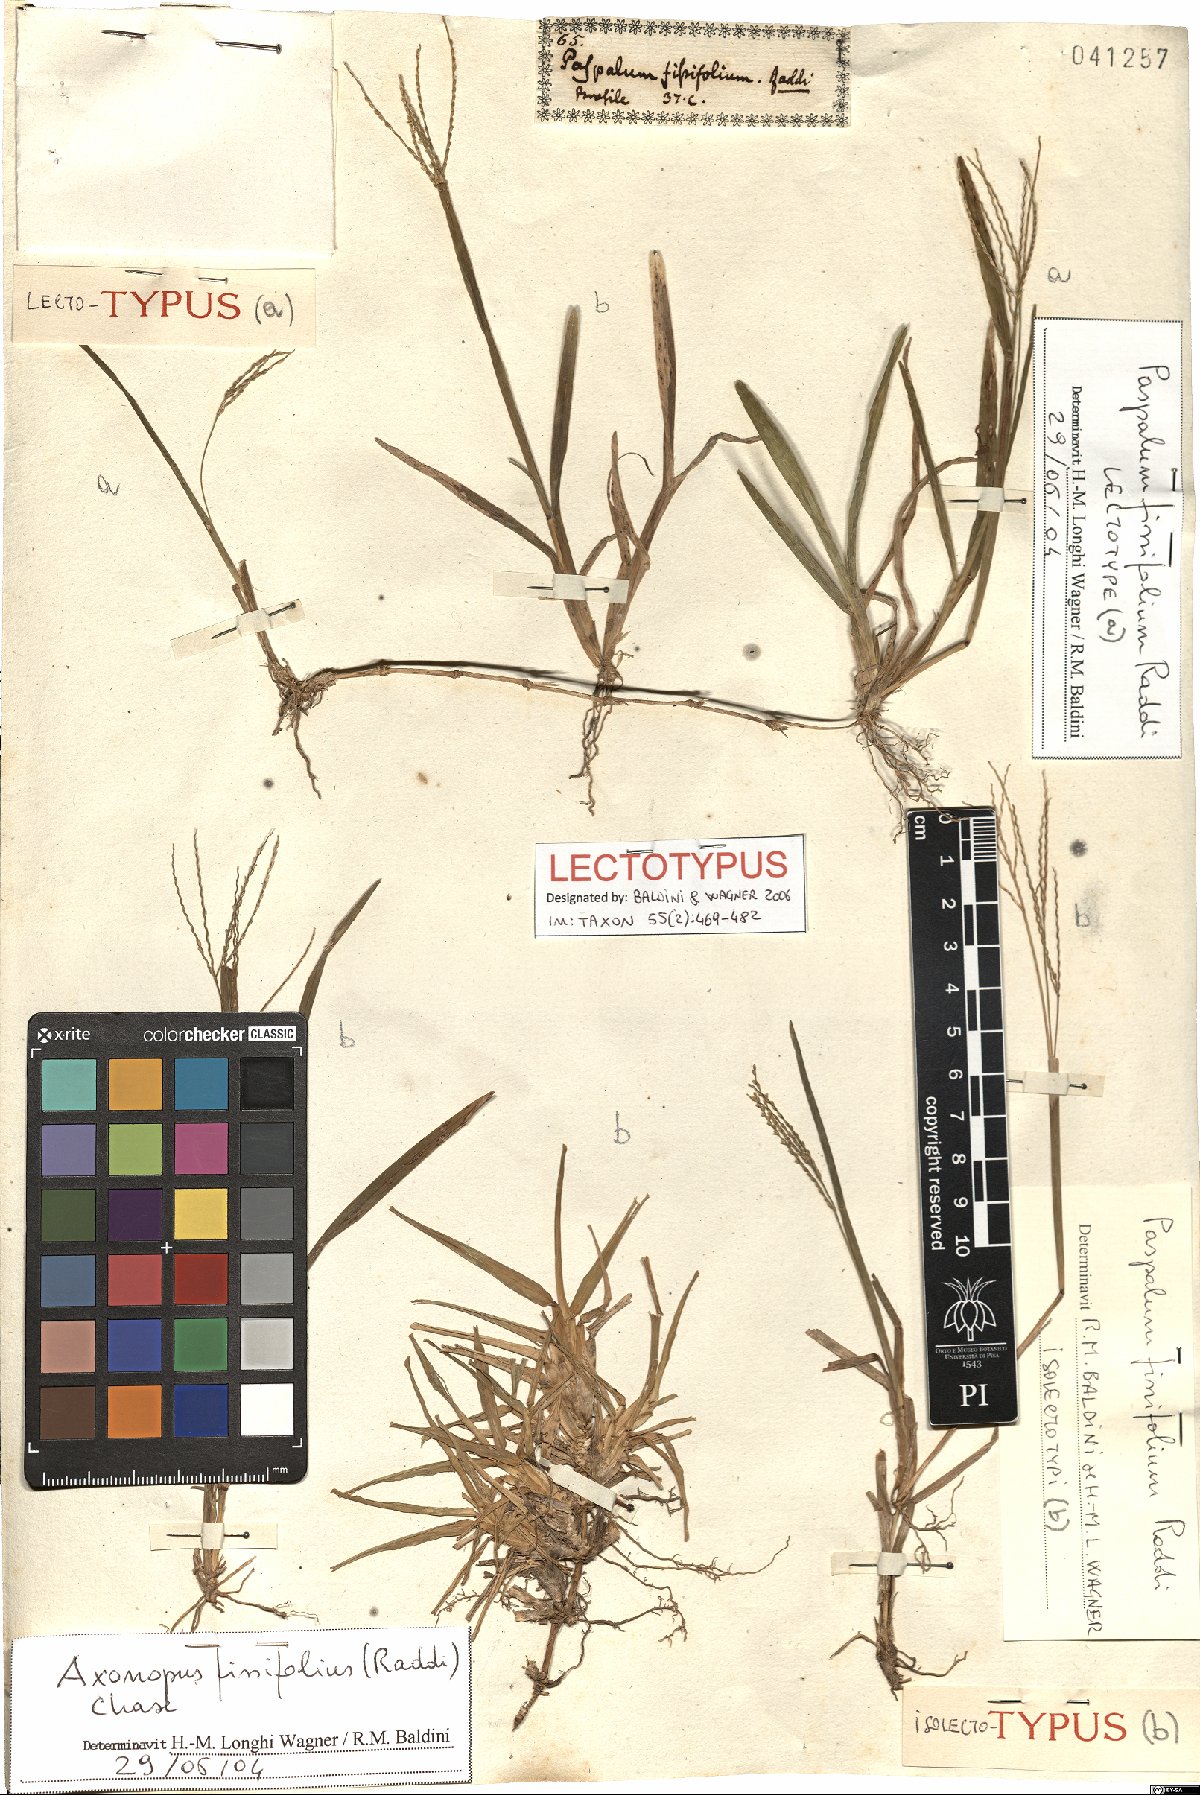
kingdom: Plantae
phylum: Tracheophyta
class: Liliopsida
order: Poales
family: Poaceae
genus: Axonopus
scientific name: Axonopus fissifolius
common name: Common carpetgrass
